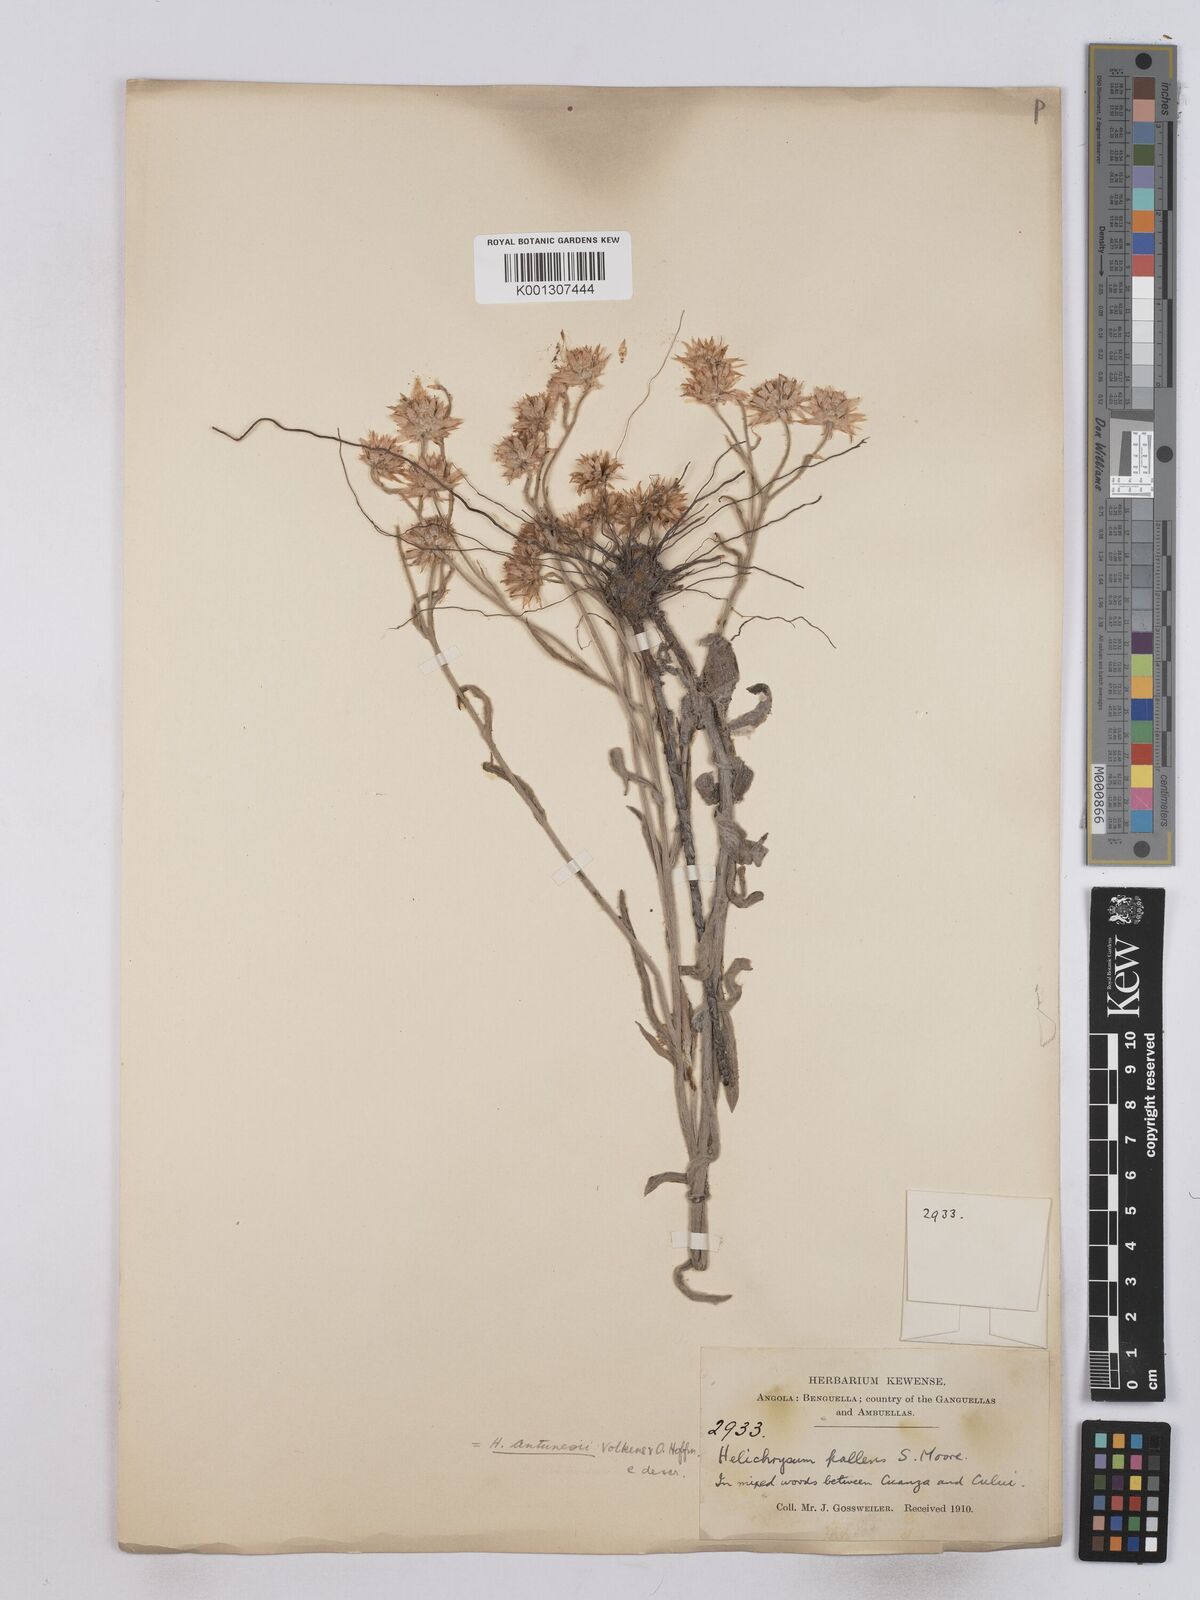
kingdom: Plantae
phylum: Tracheophyta
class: Magnoliopsida
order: Asterales
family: Asteraceae
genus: Helichrysum
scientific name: Helichrysum quartinianum
